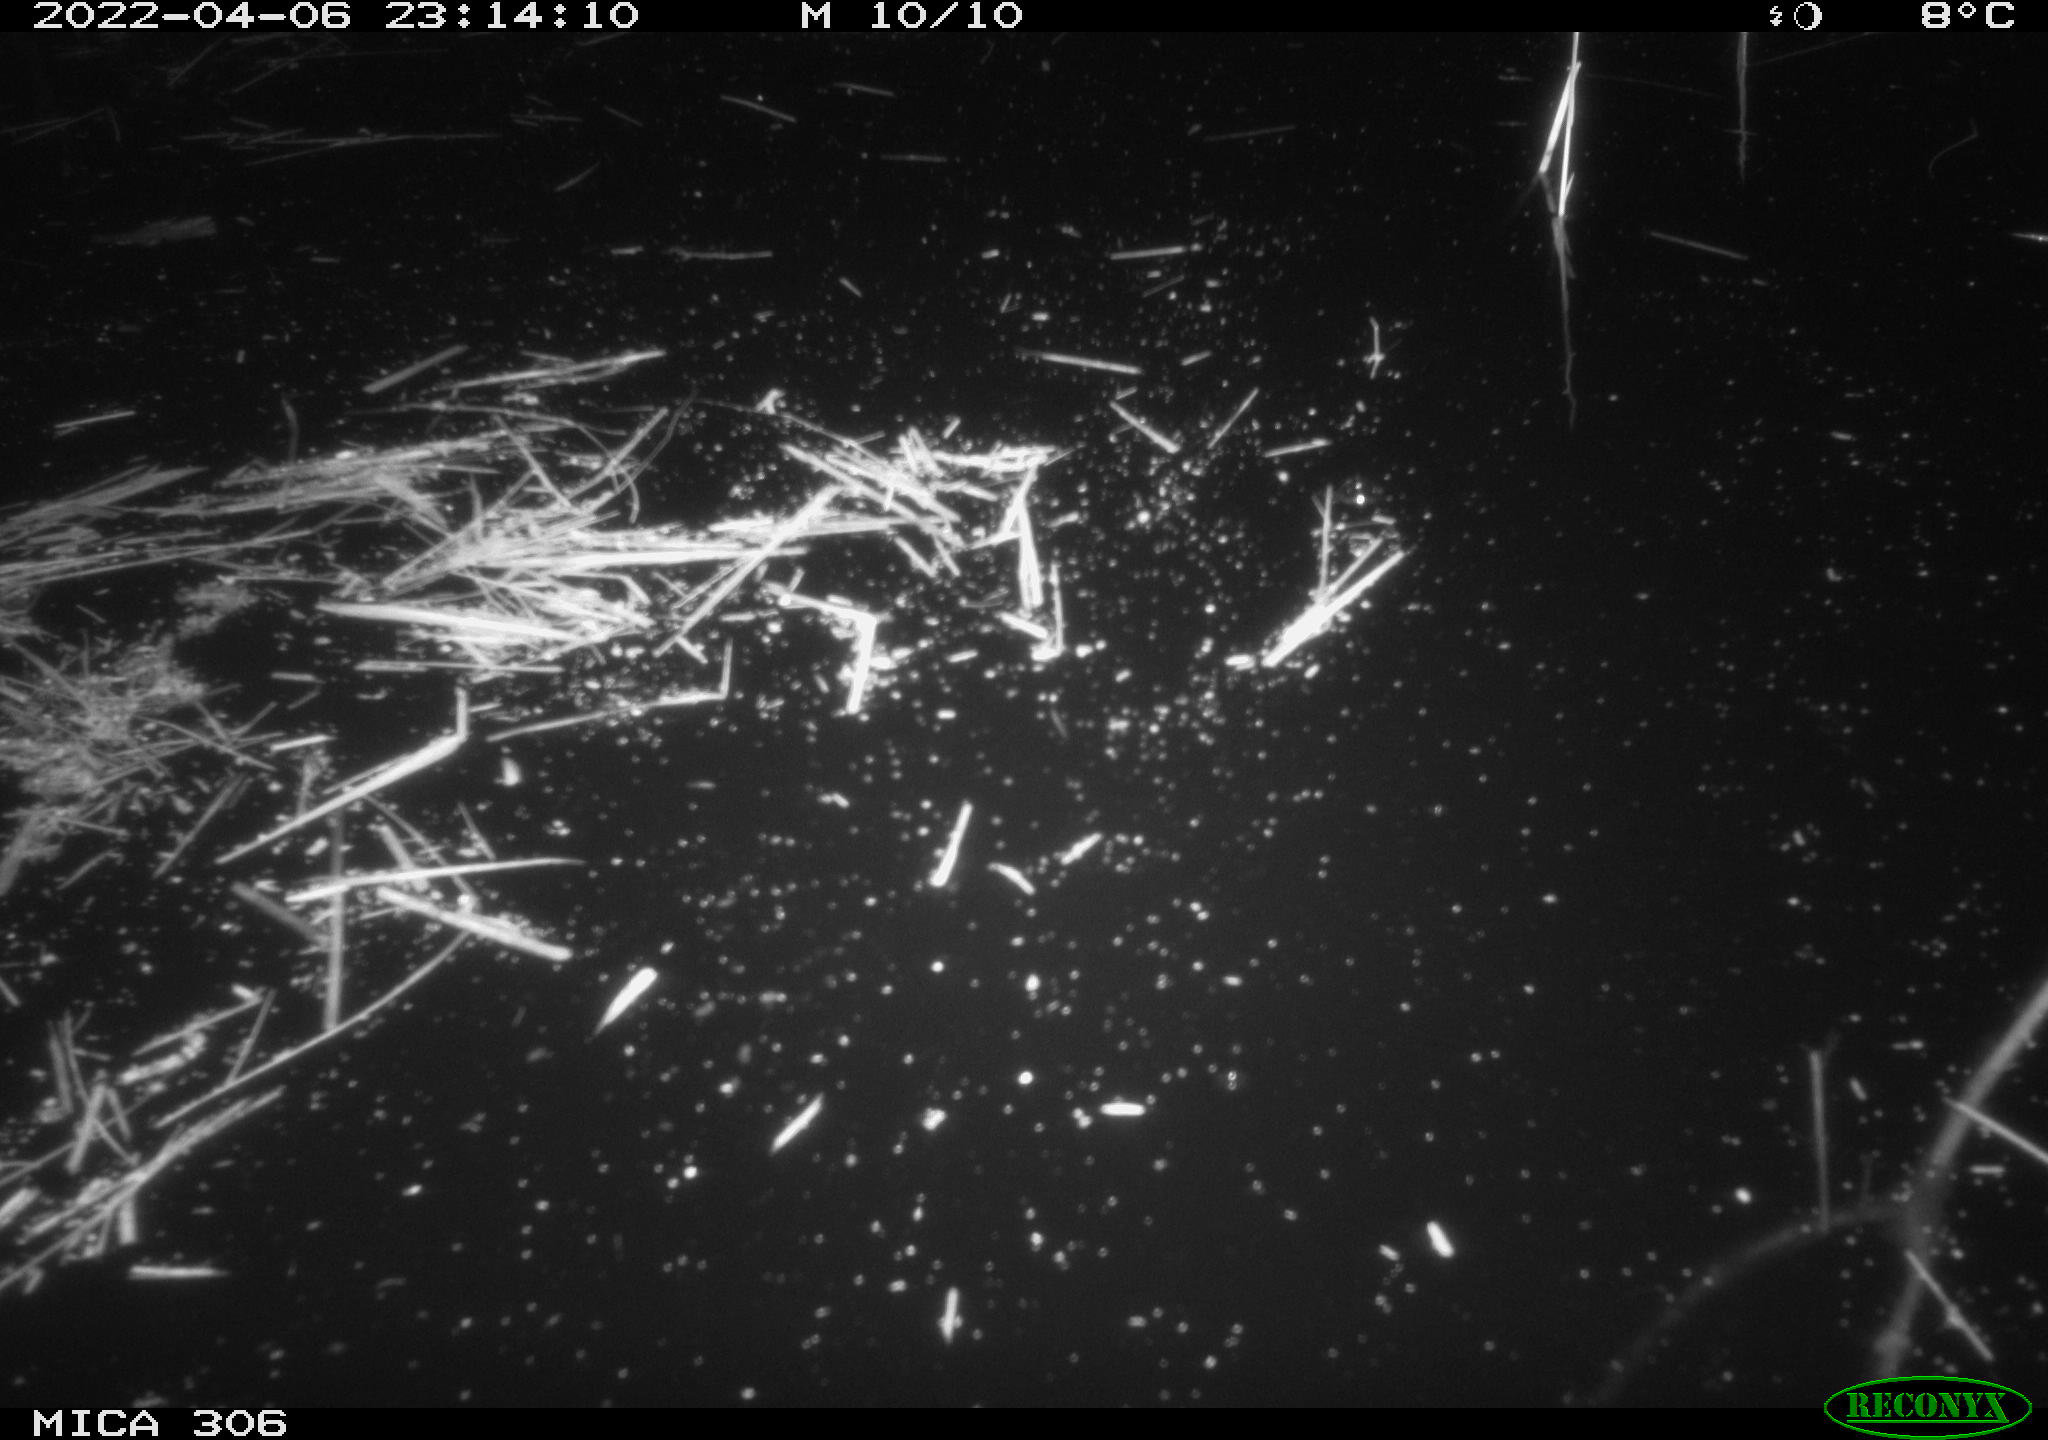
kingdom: Animalia
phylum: Chordata
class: Mammalia
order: Rodentia
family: Cricetidae
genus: Ondatra
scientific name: Ondatra zibethicus
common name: Muskrat
